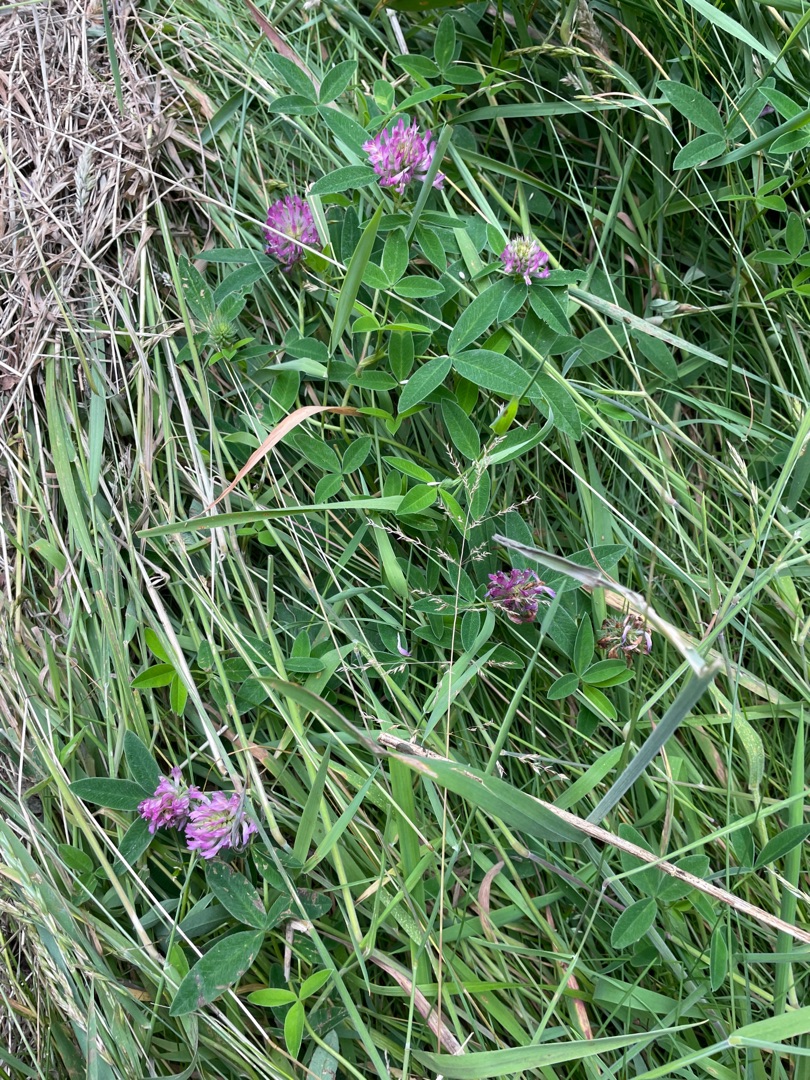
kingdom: Plantae
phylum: Tracheophyta
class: Magnoliopsida
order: Fabales
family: Fabaceae
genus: Trifolium
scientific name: Trifolium medium
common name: Bugtet kløver
